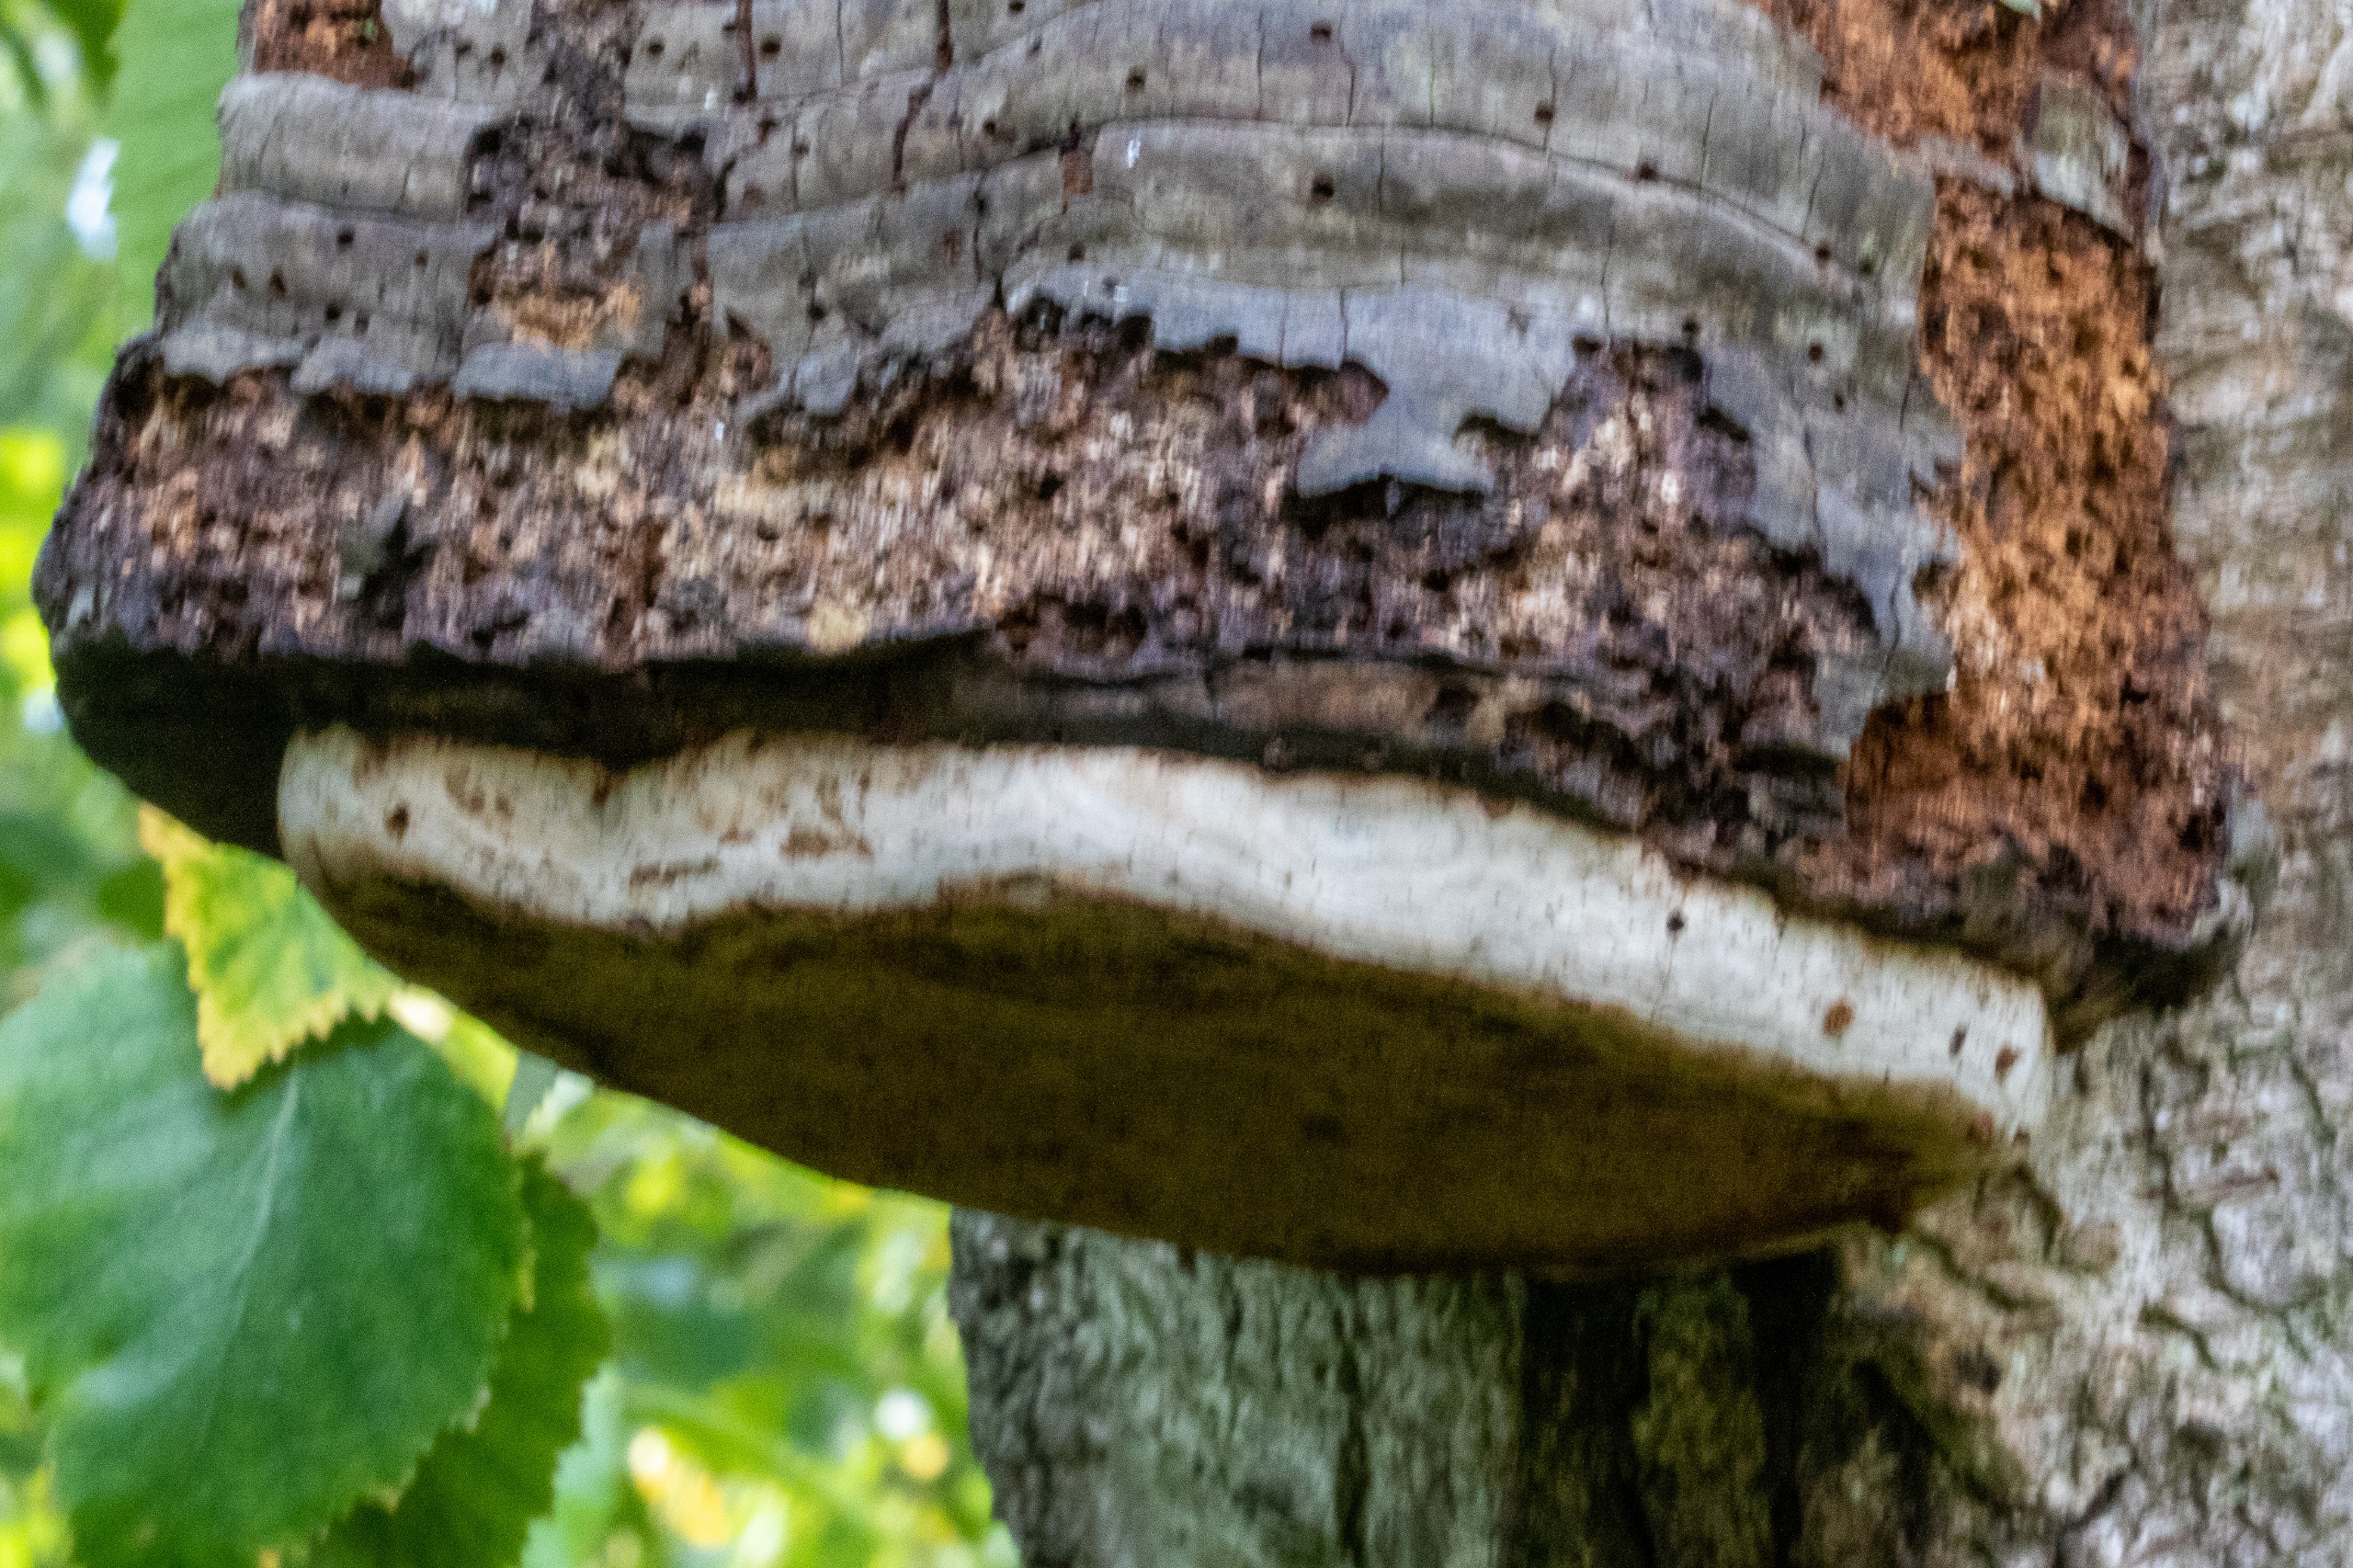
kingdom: Fungi
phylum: Basidiomycota
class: Agaricomycetes
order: Polyporales
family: Polyporaceae
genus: Fomes
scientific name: Fomes fomentarius
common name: Tøndersvamp
